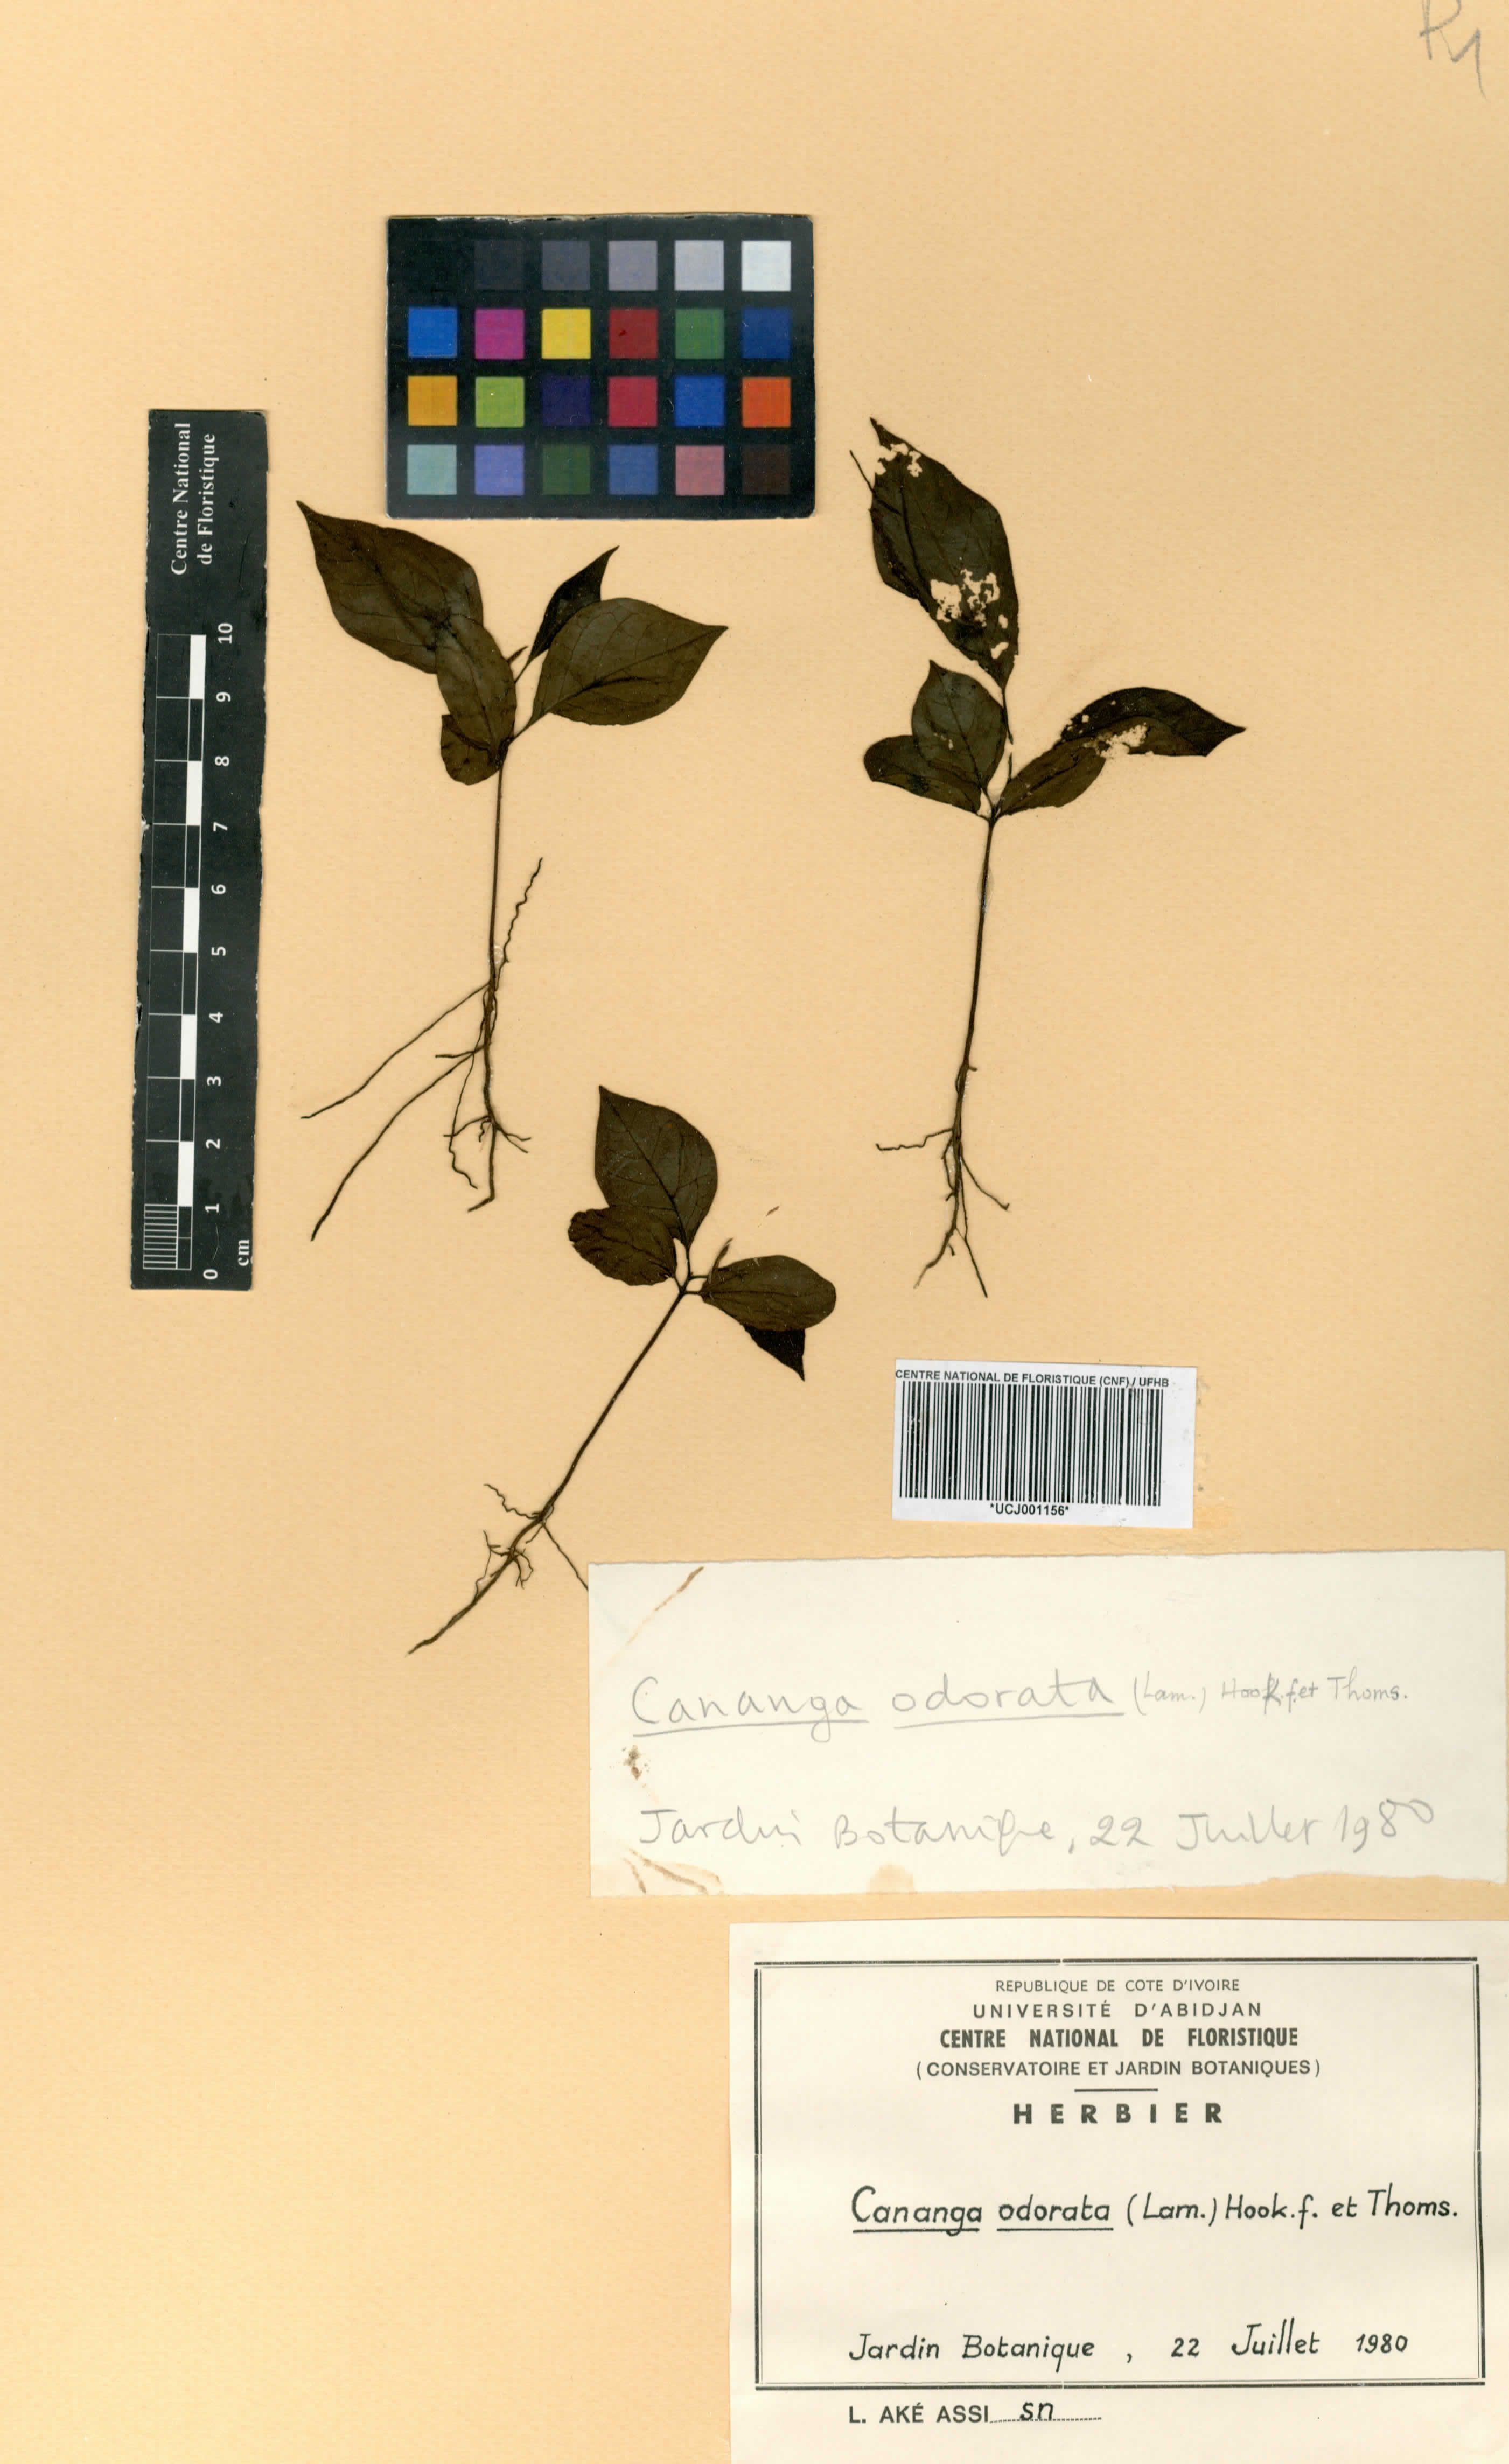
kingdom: Plantae
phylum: Tracheophyta
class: Magnoliopsida
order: Magnoliales
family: Annonaceae
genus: Cananga
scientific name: Cananga odorata
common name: Cananga tree
